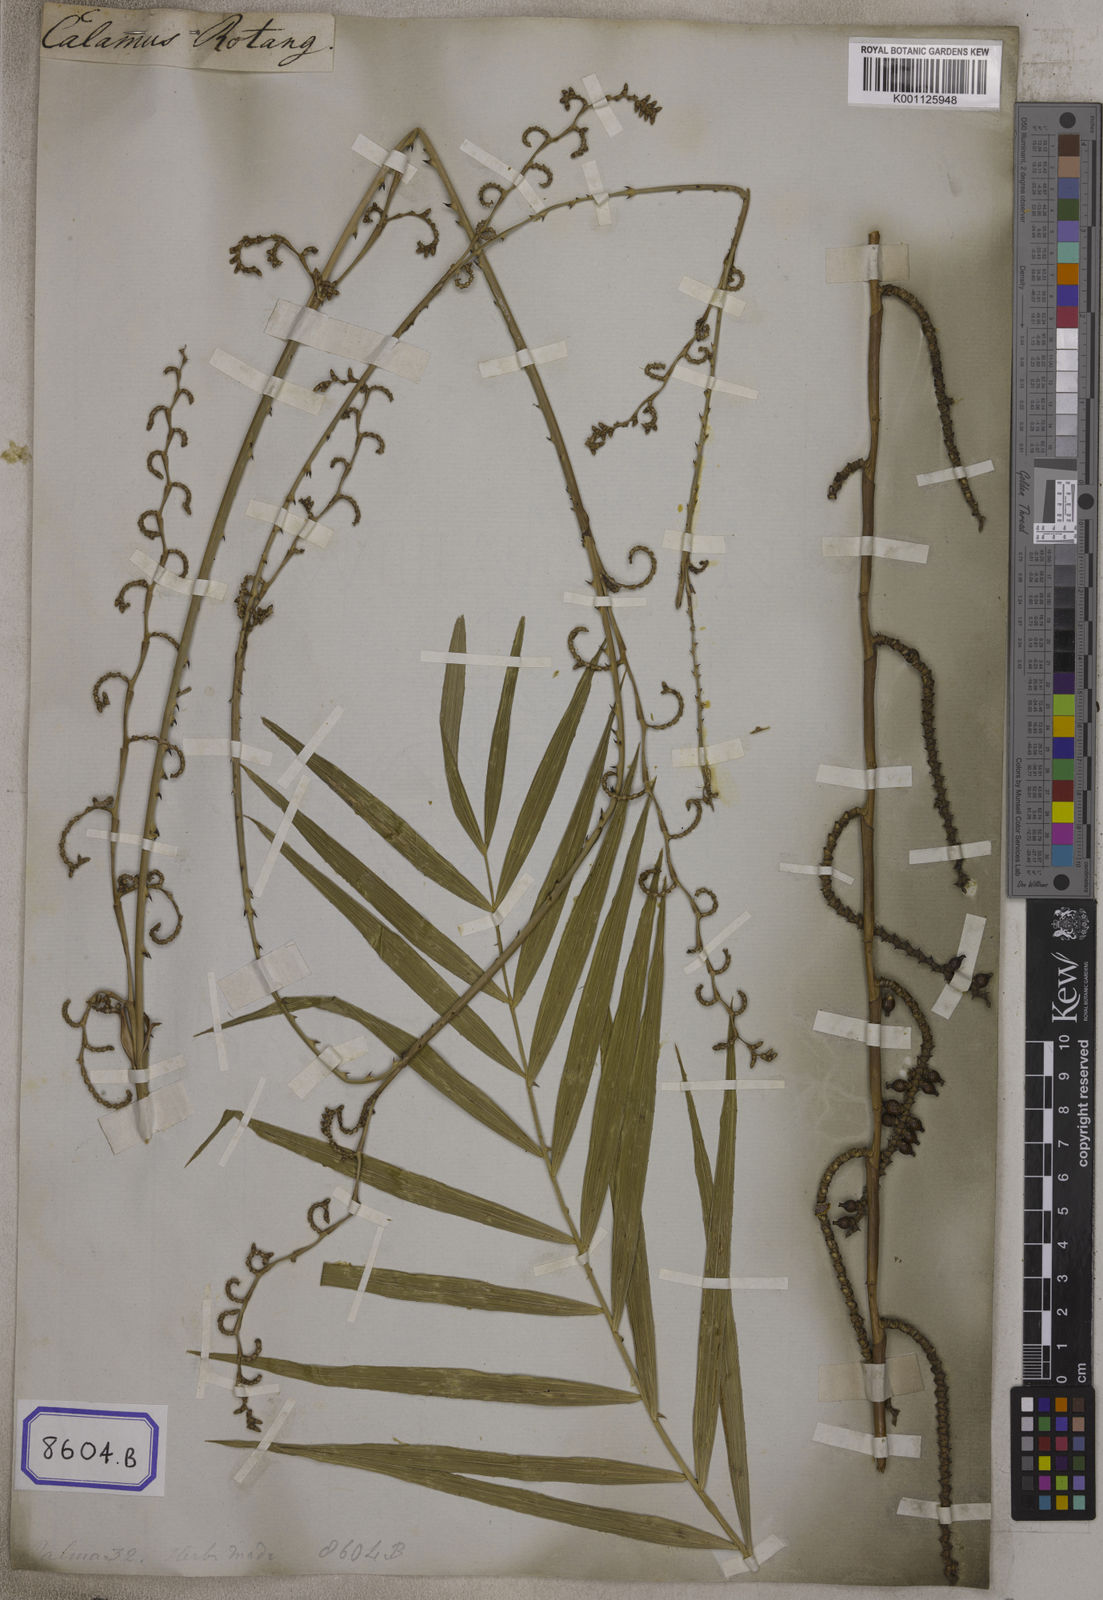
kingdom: Plantae
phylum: Tracheophyta
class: Liliopsida
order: Arecales
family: Arecaceae
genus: Calamus
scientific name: Calamus rotang
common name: Rattan cane
